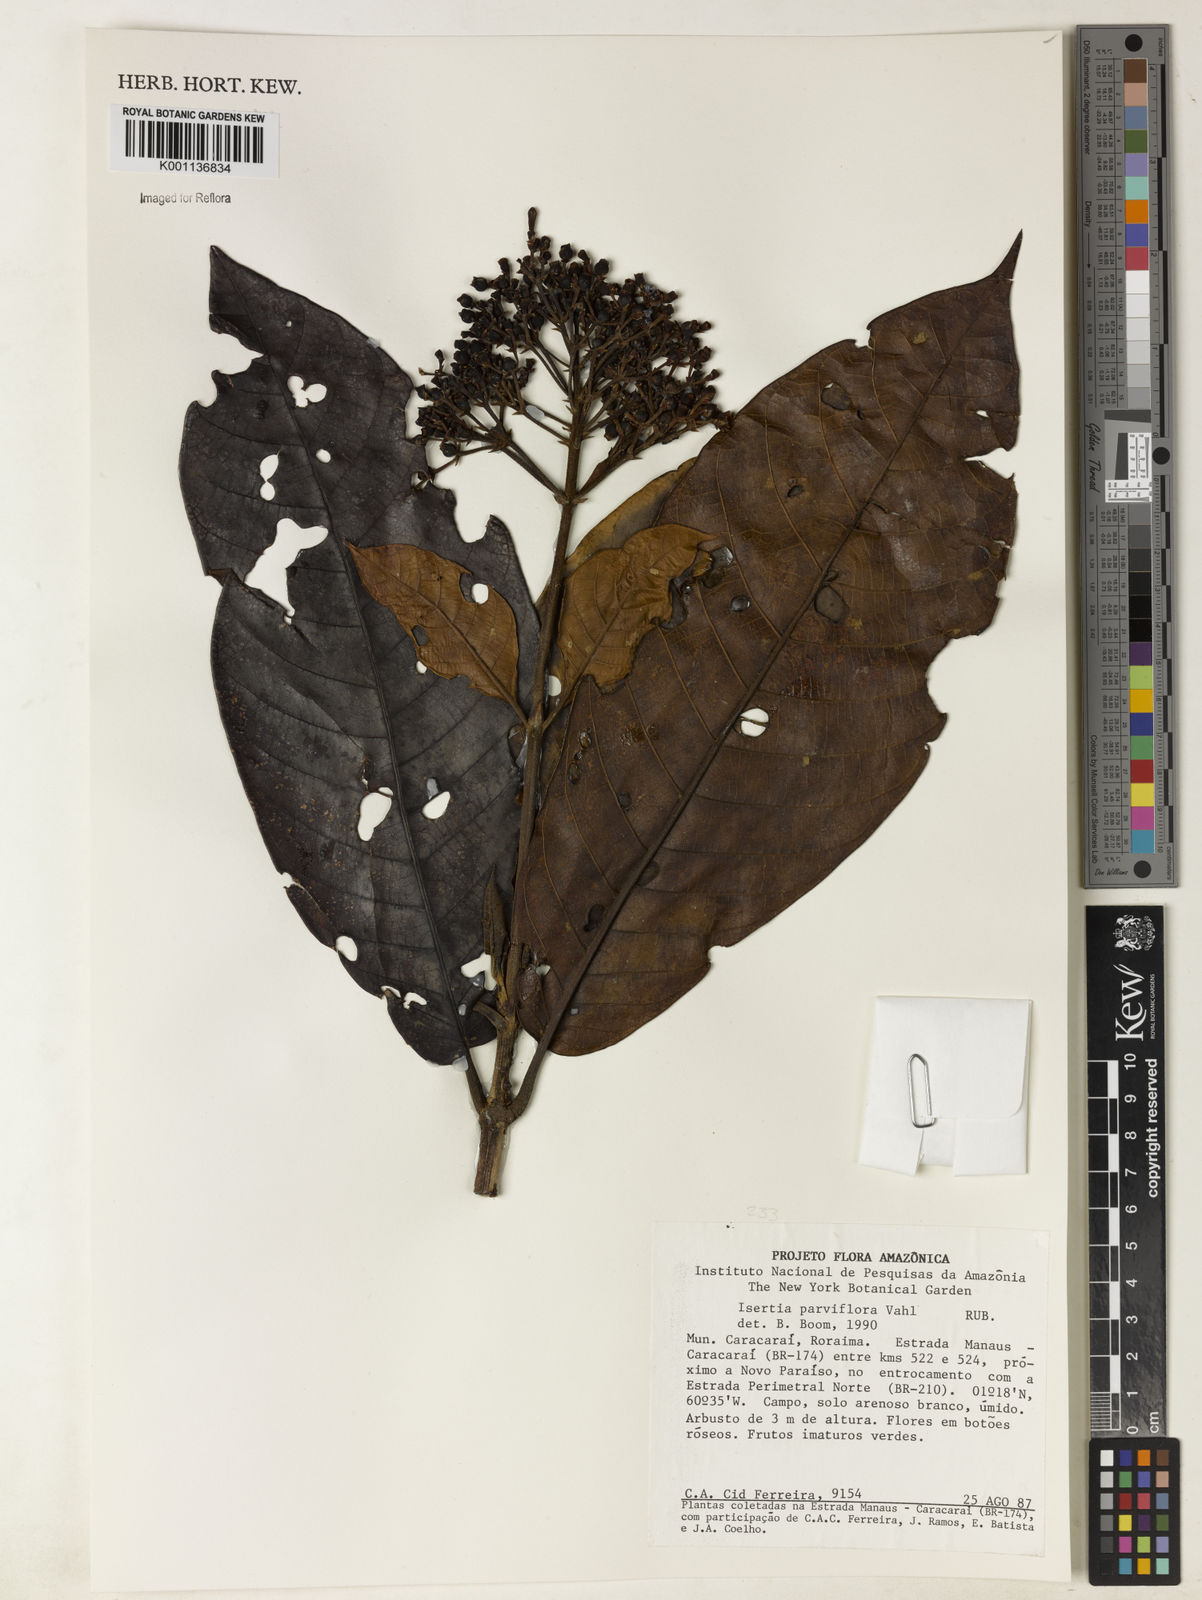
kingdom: Plantae
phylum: Tracheophyta
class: Magnoliopsida
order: Gentianales
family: Rubiaceae
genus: Isertia
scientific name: Isertia parviflora
